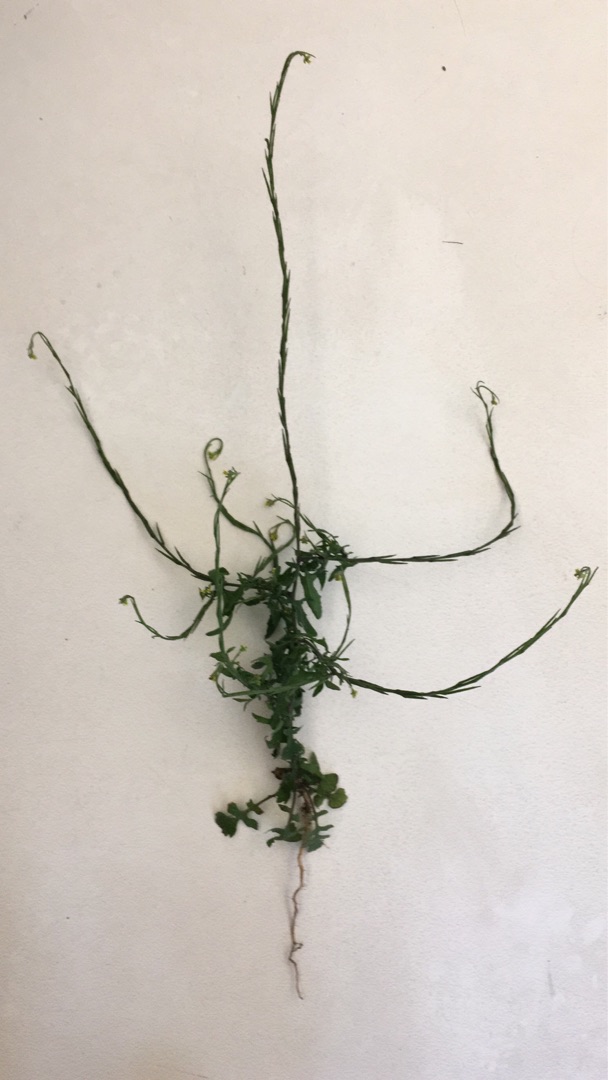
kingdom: Plantae
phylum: Tracheophyta
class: Magnoliopsida
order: Brassicales
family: Brassicaceae
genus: Sisymbrium
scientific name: Sisymbrium officinale
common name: Rank vejsennep
